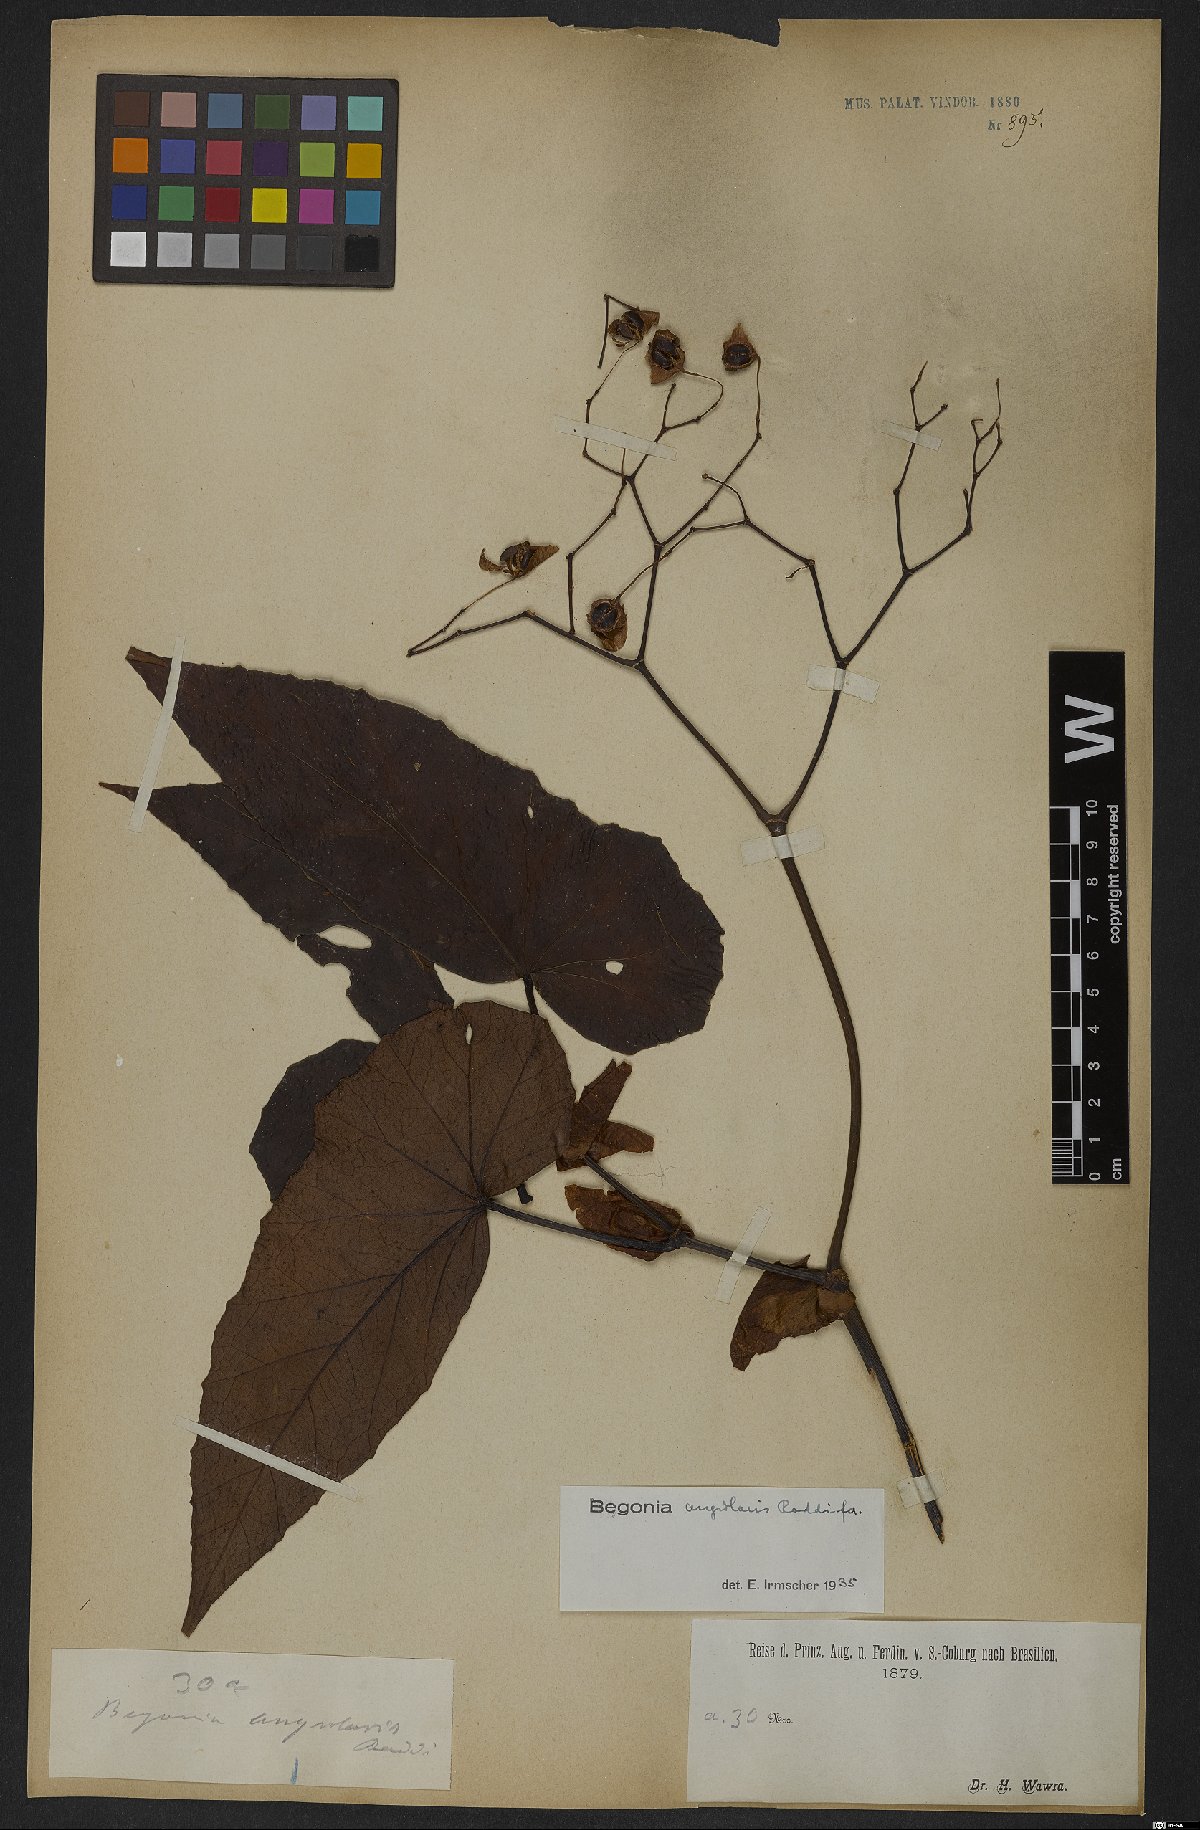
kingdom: Plantae
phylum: Tracheophyta
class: Magnoliopsida
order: Cucurbitales
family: Begoniaceae
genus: Begonia
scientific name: Begonia angularis
